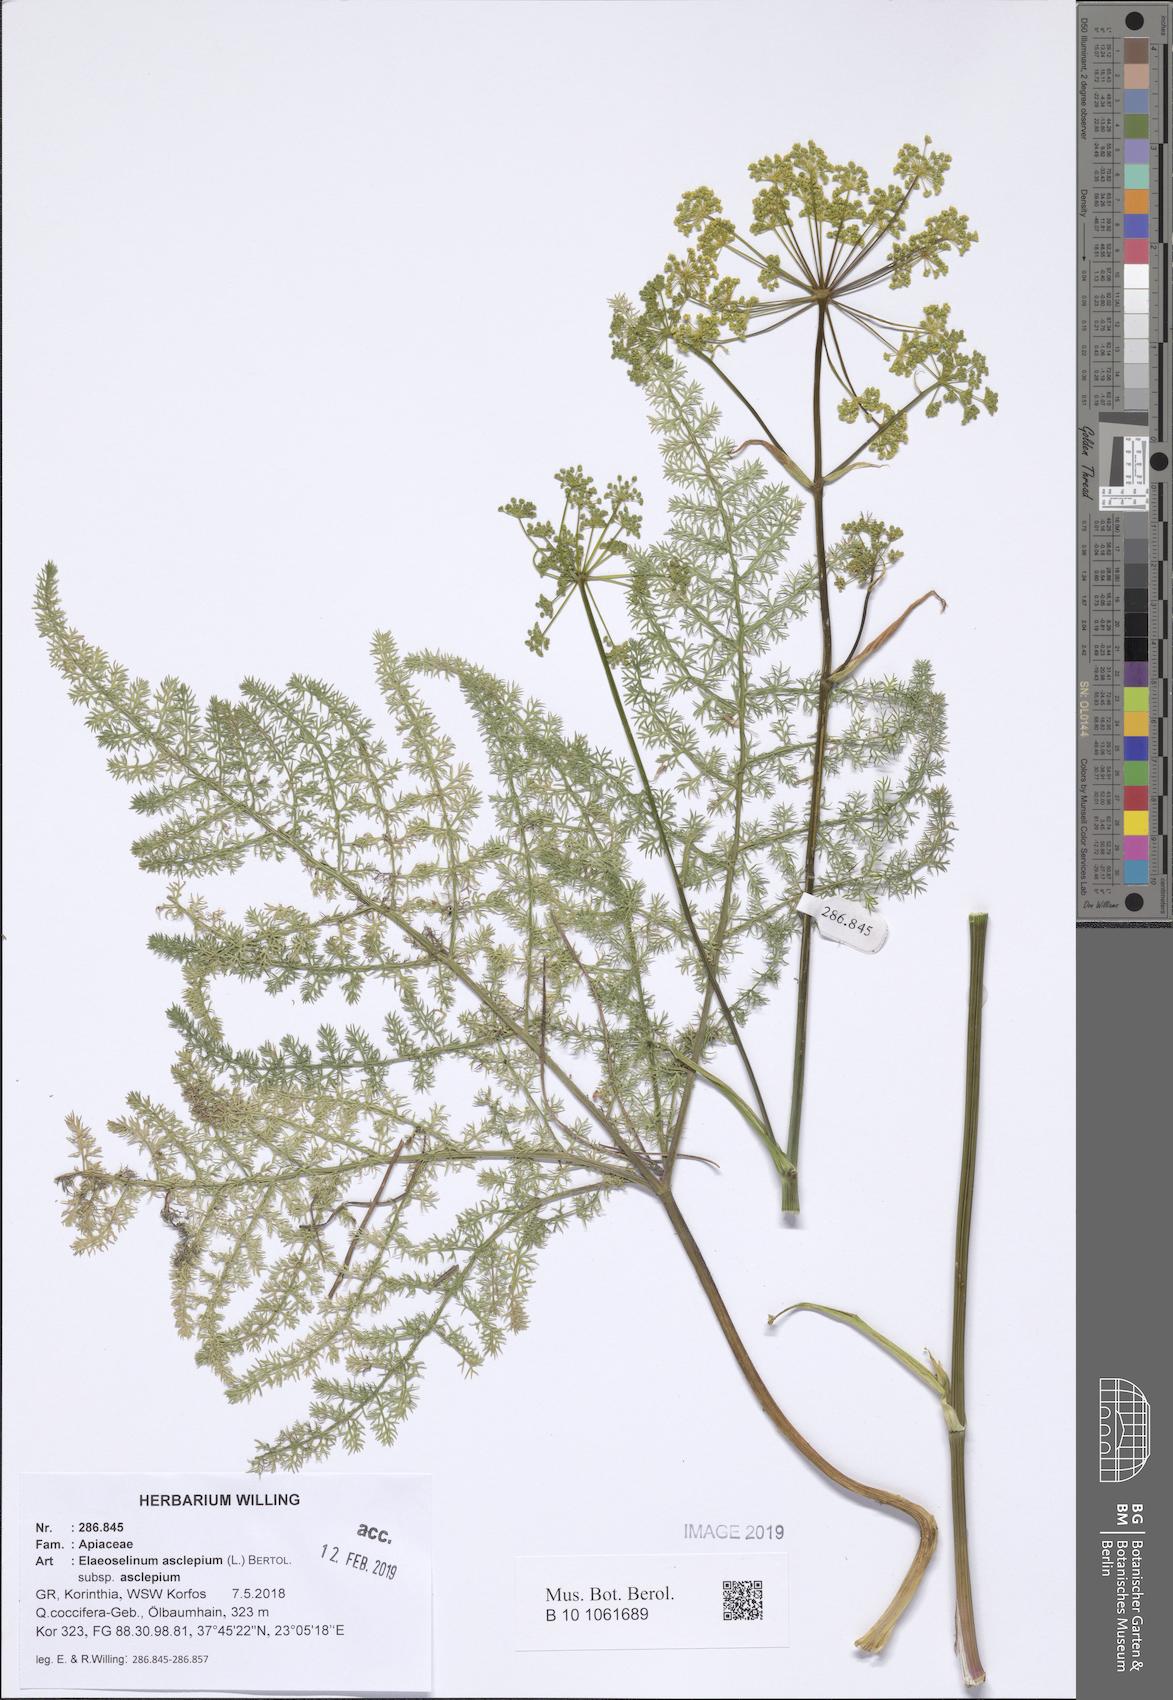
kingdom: Plantae
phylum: Tracheophyta
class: Magnoliopsida
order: Apiales
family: Apiaceae
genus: Thapsia
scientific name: Thapsia asclepium
